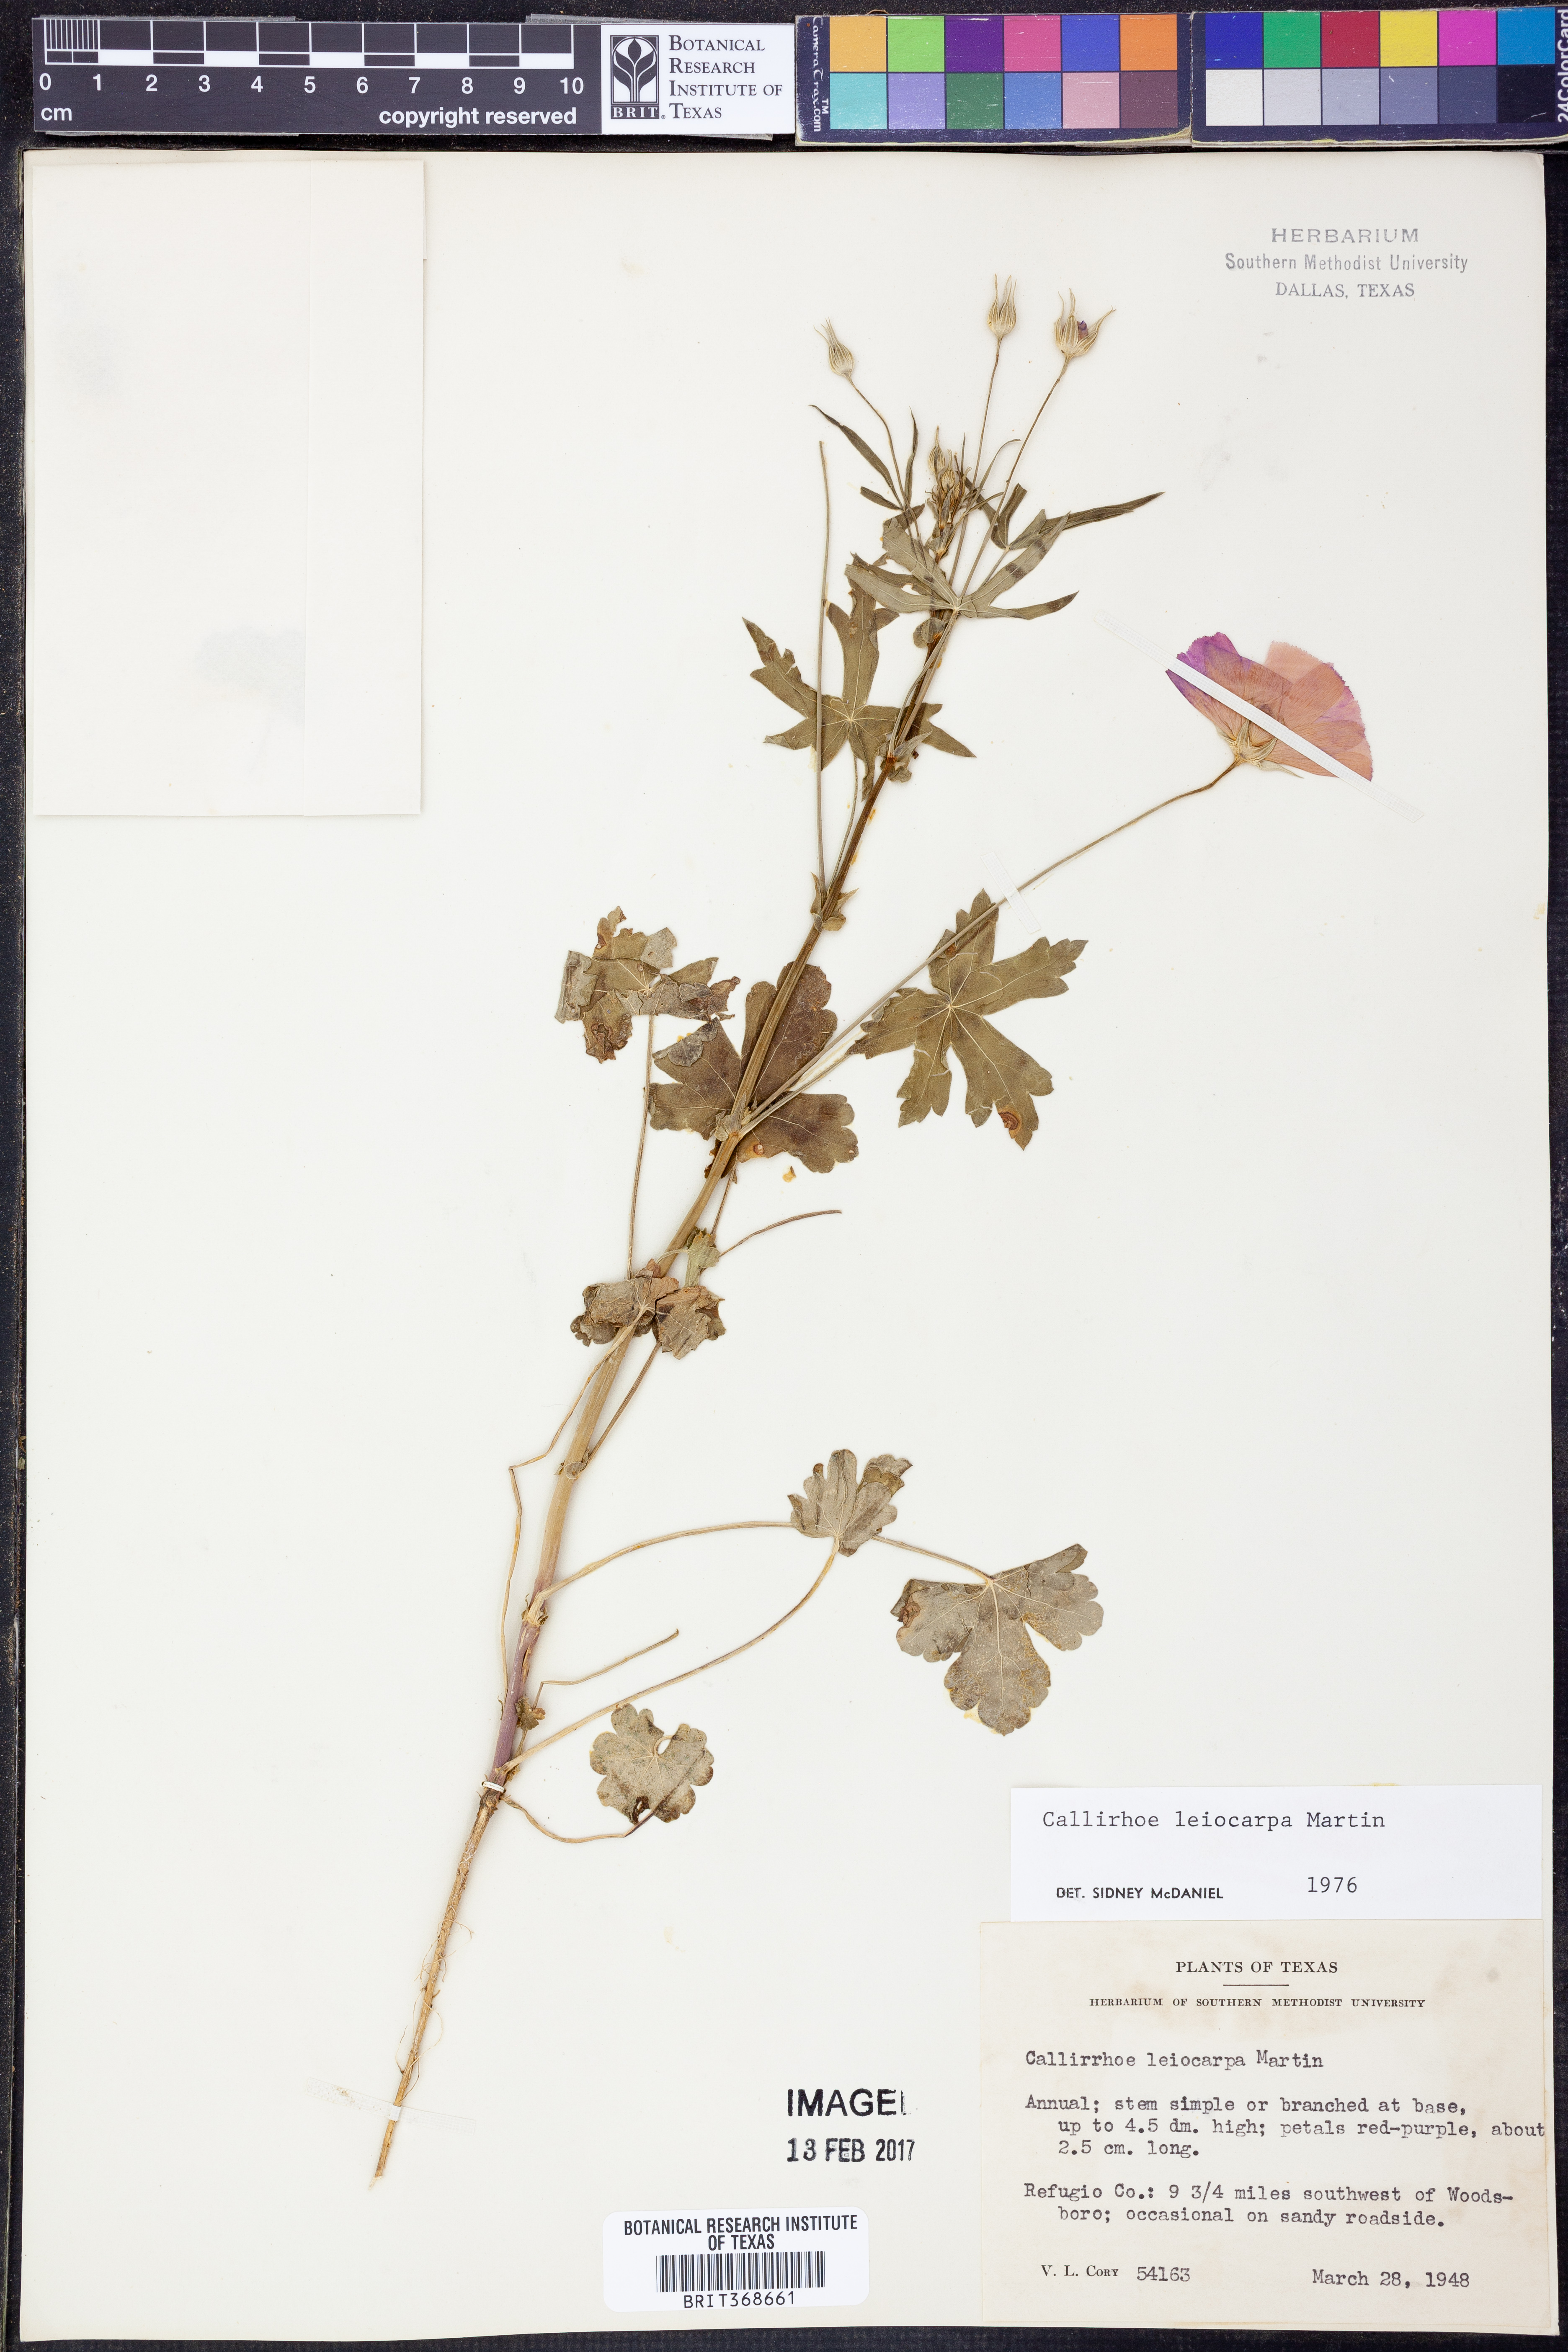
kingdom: Plantae
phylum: Tracheophyta
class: Magnoliopsida
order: Malvales
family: Malvaceae
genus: Callirhoe
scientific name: Callirhoe leiocarpa
